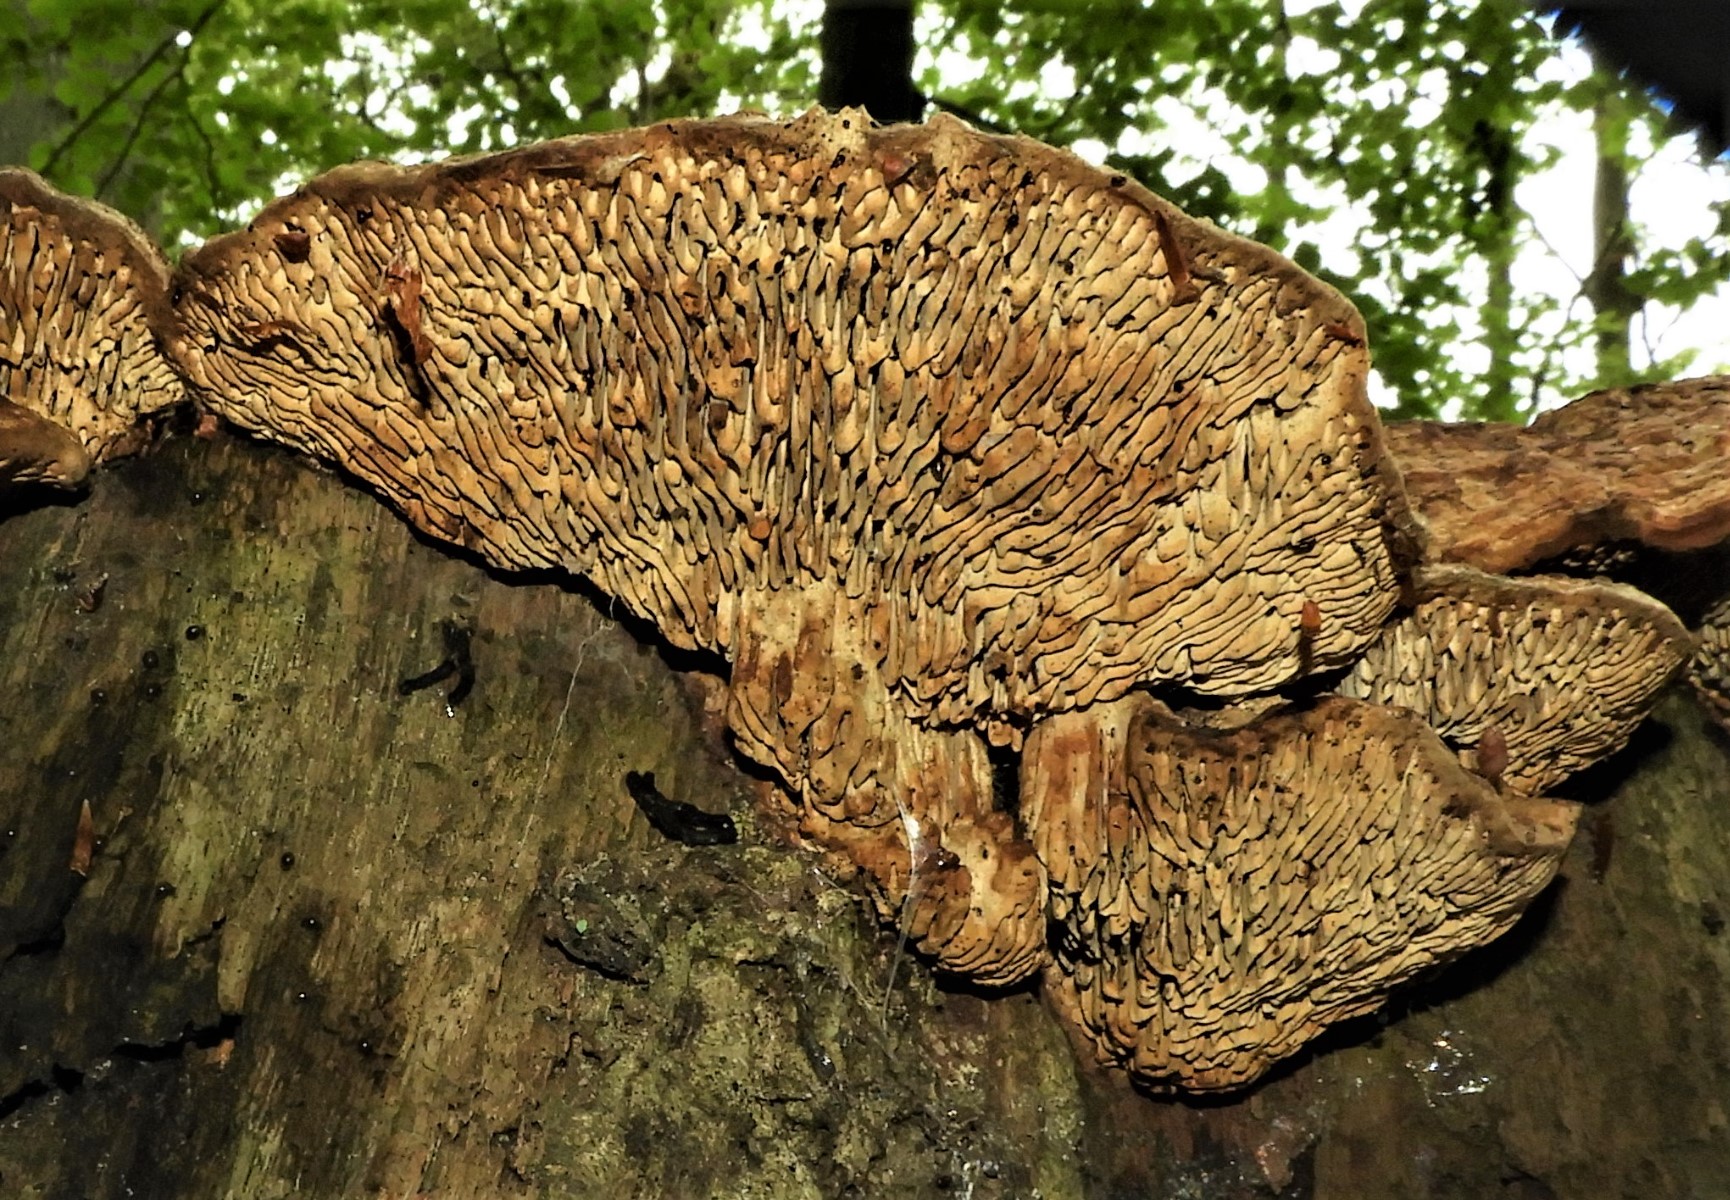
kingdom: Fungi
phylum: Basidiomycota
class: Agaricomycetes
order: Polyporales
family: Fomitopsidaceae
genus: Daedalea
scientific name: Daedalea quercina
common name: ege-labyrintsvamp
